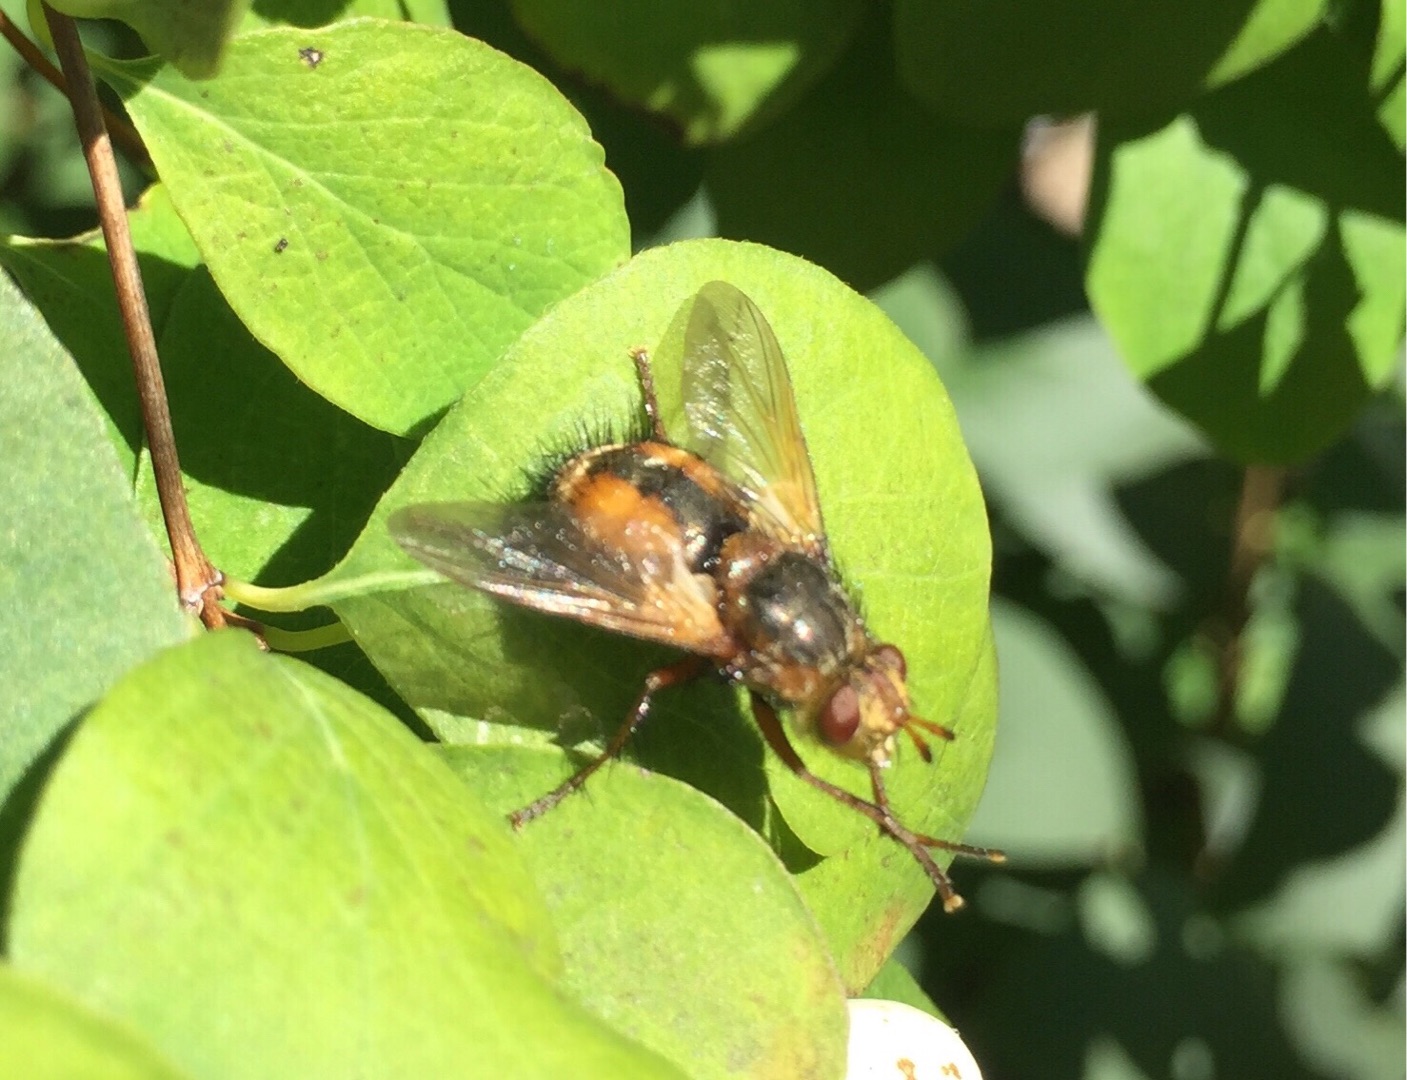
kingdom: Animalia
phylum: Arthropoda
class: Insecta
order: Diptera
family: Tachinidae
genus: Tachina
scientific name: Tachina fera
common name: Mellemfluen oskar
